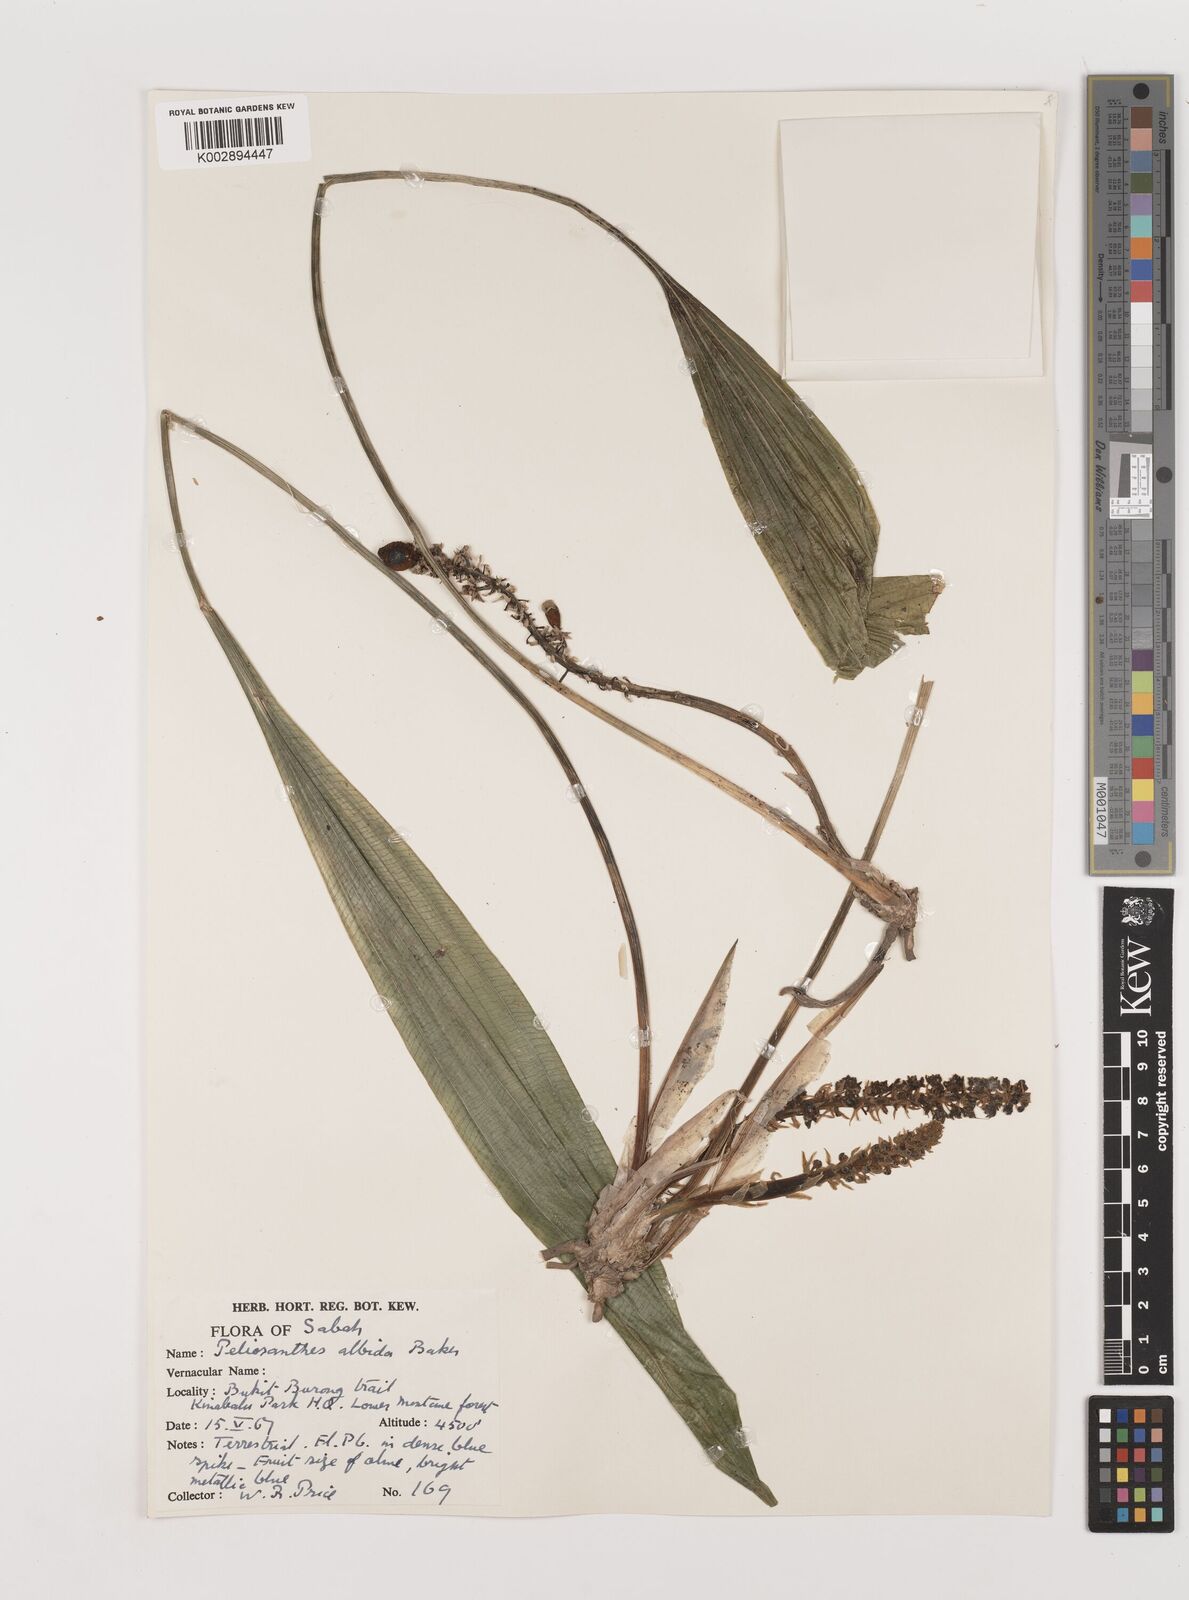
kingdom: Plantae
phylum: Tracheophyta
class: Liliopsida
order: Asparagales
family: Asparagaceae
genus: Peliosanthes
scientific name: Peliosanthes teta
